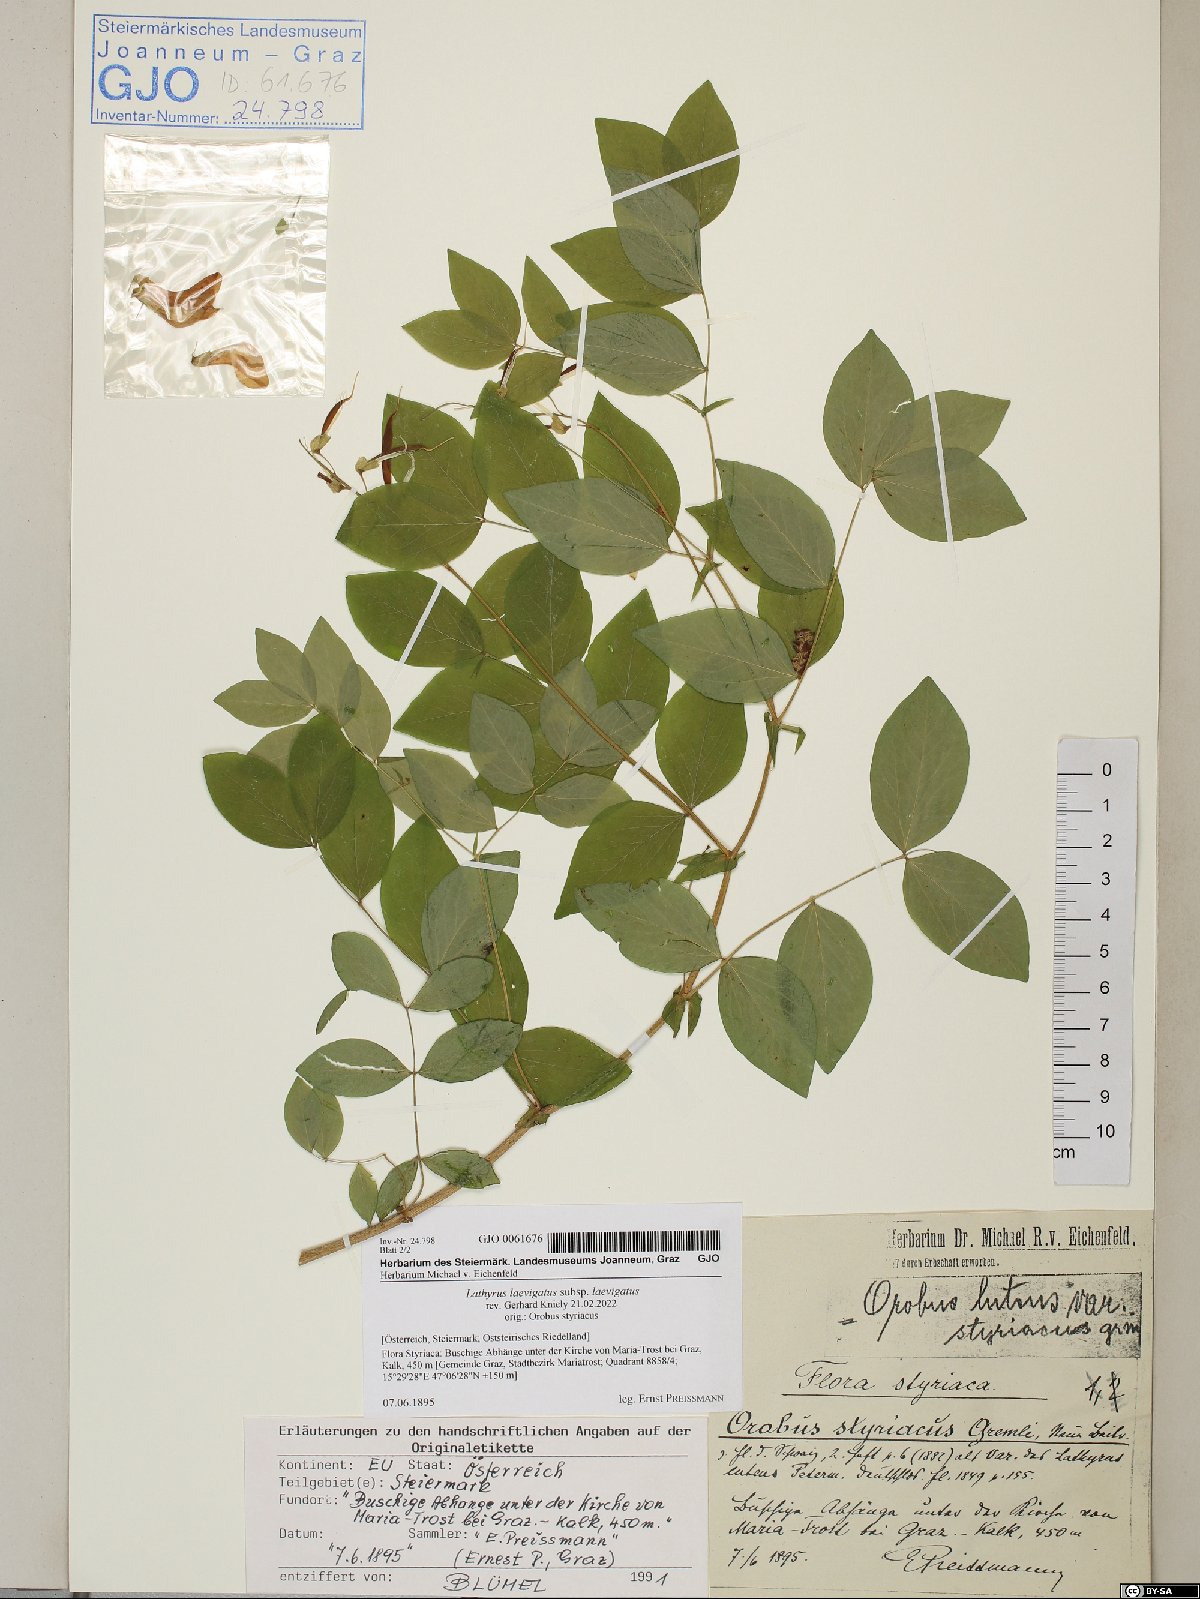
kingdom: Plantae
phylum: Tracheophyta
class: Magnoliopsida
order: Fabales
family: Fabaceae
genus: Lathyrus
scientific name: Lathyrus laevigatus
